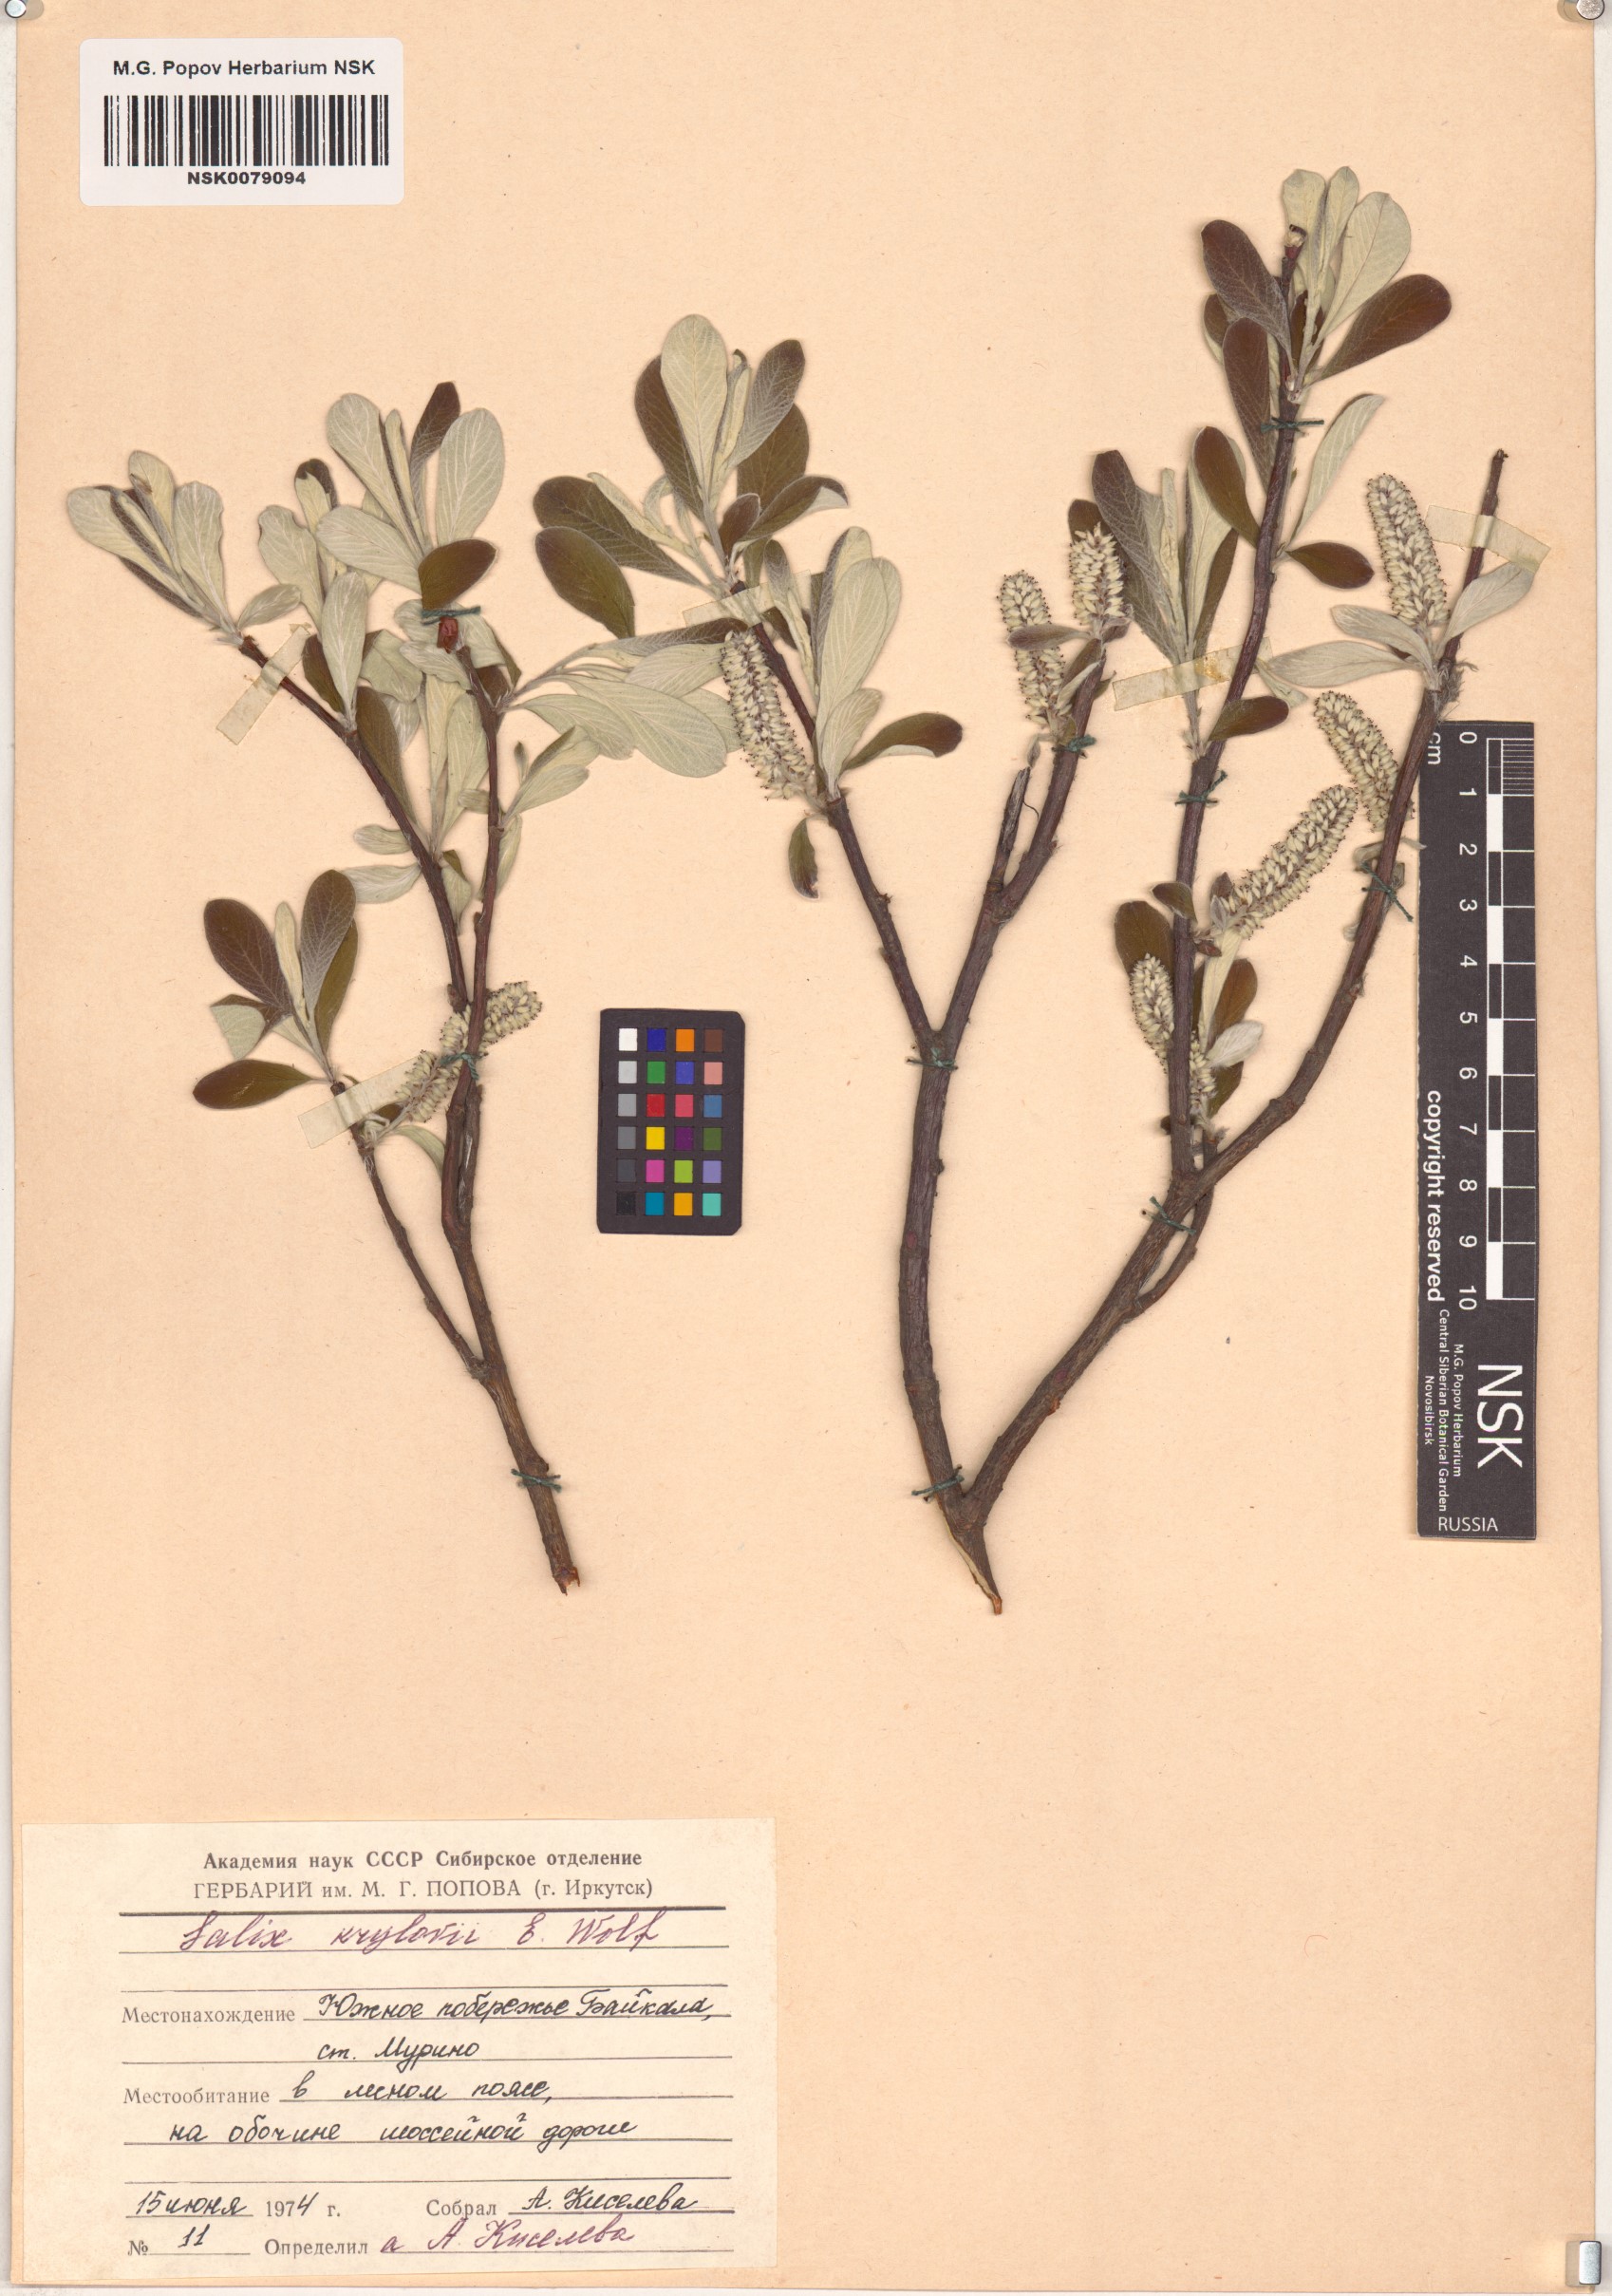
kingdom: Plantae
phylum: Tracheophyta
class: Magnoliopsida
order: Malpighiales
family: Salicaceae
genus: Salix
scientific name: Salix krylovii
